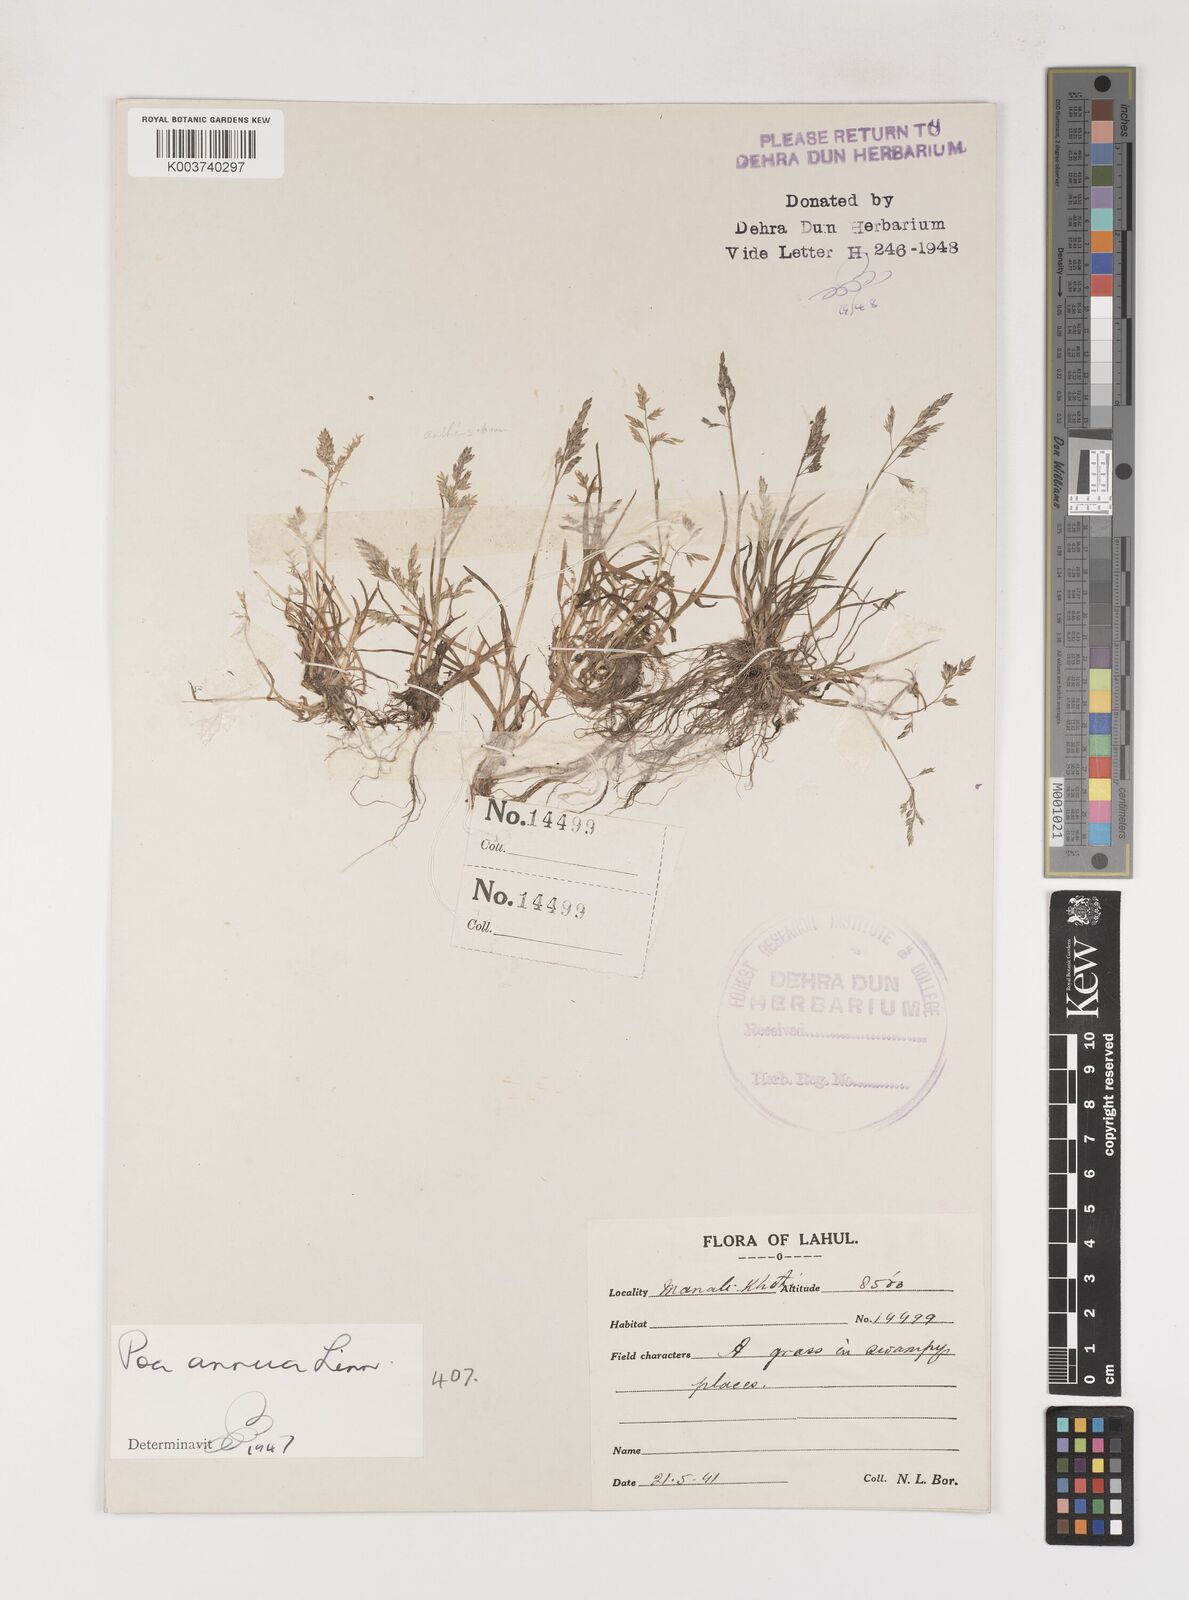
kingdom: Plantae
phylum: Tracheophyta
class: Liliopsida
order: Poales
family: Poaceae
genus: Poa
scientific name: Poa annua
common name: Annual bluegrass
